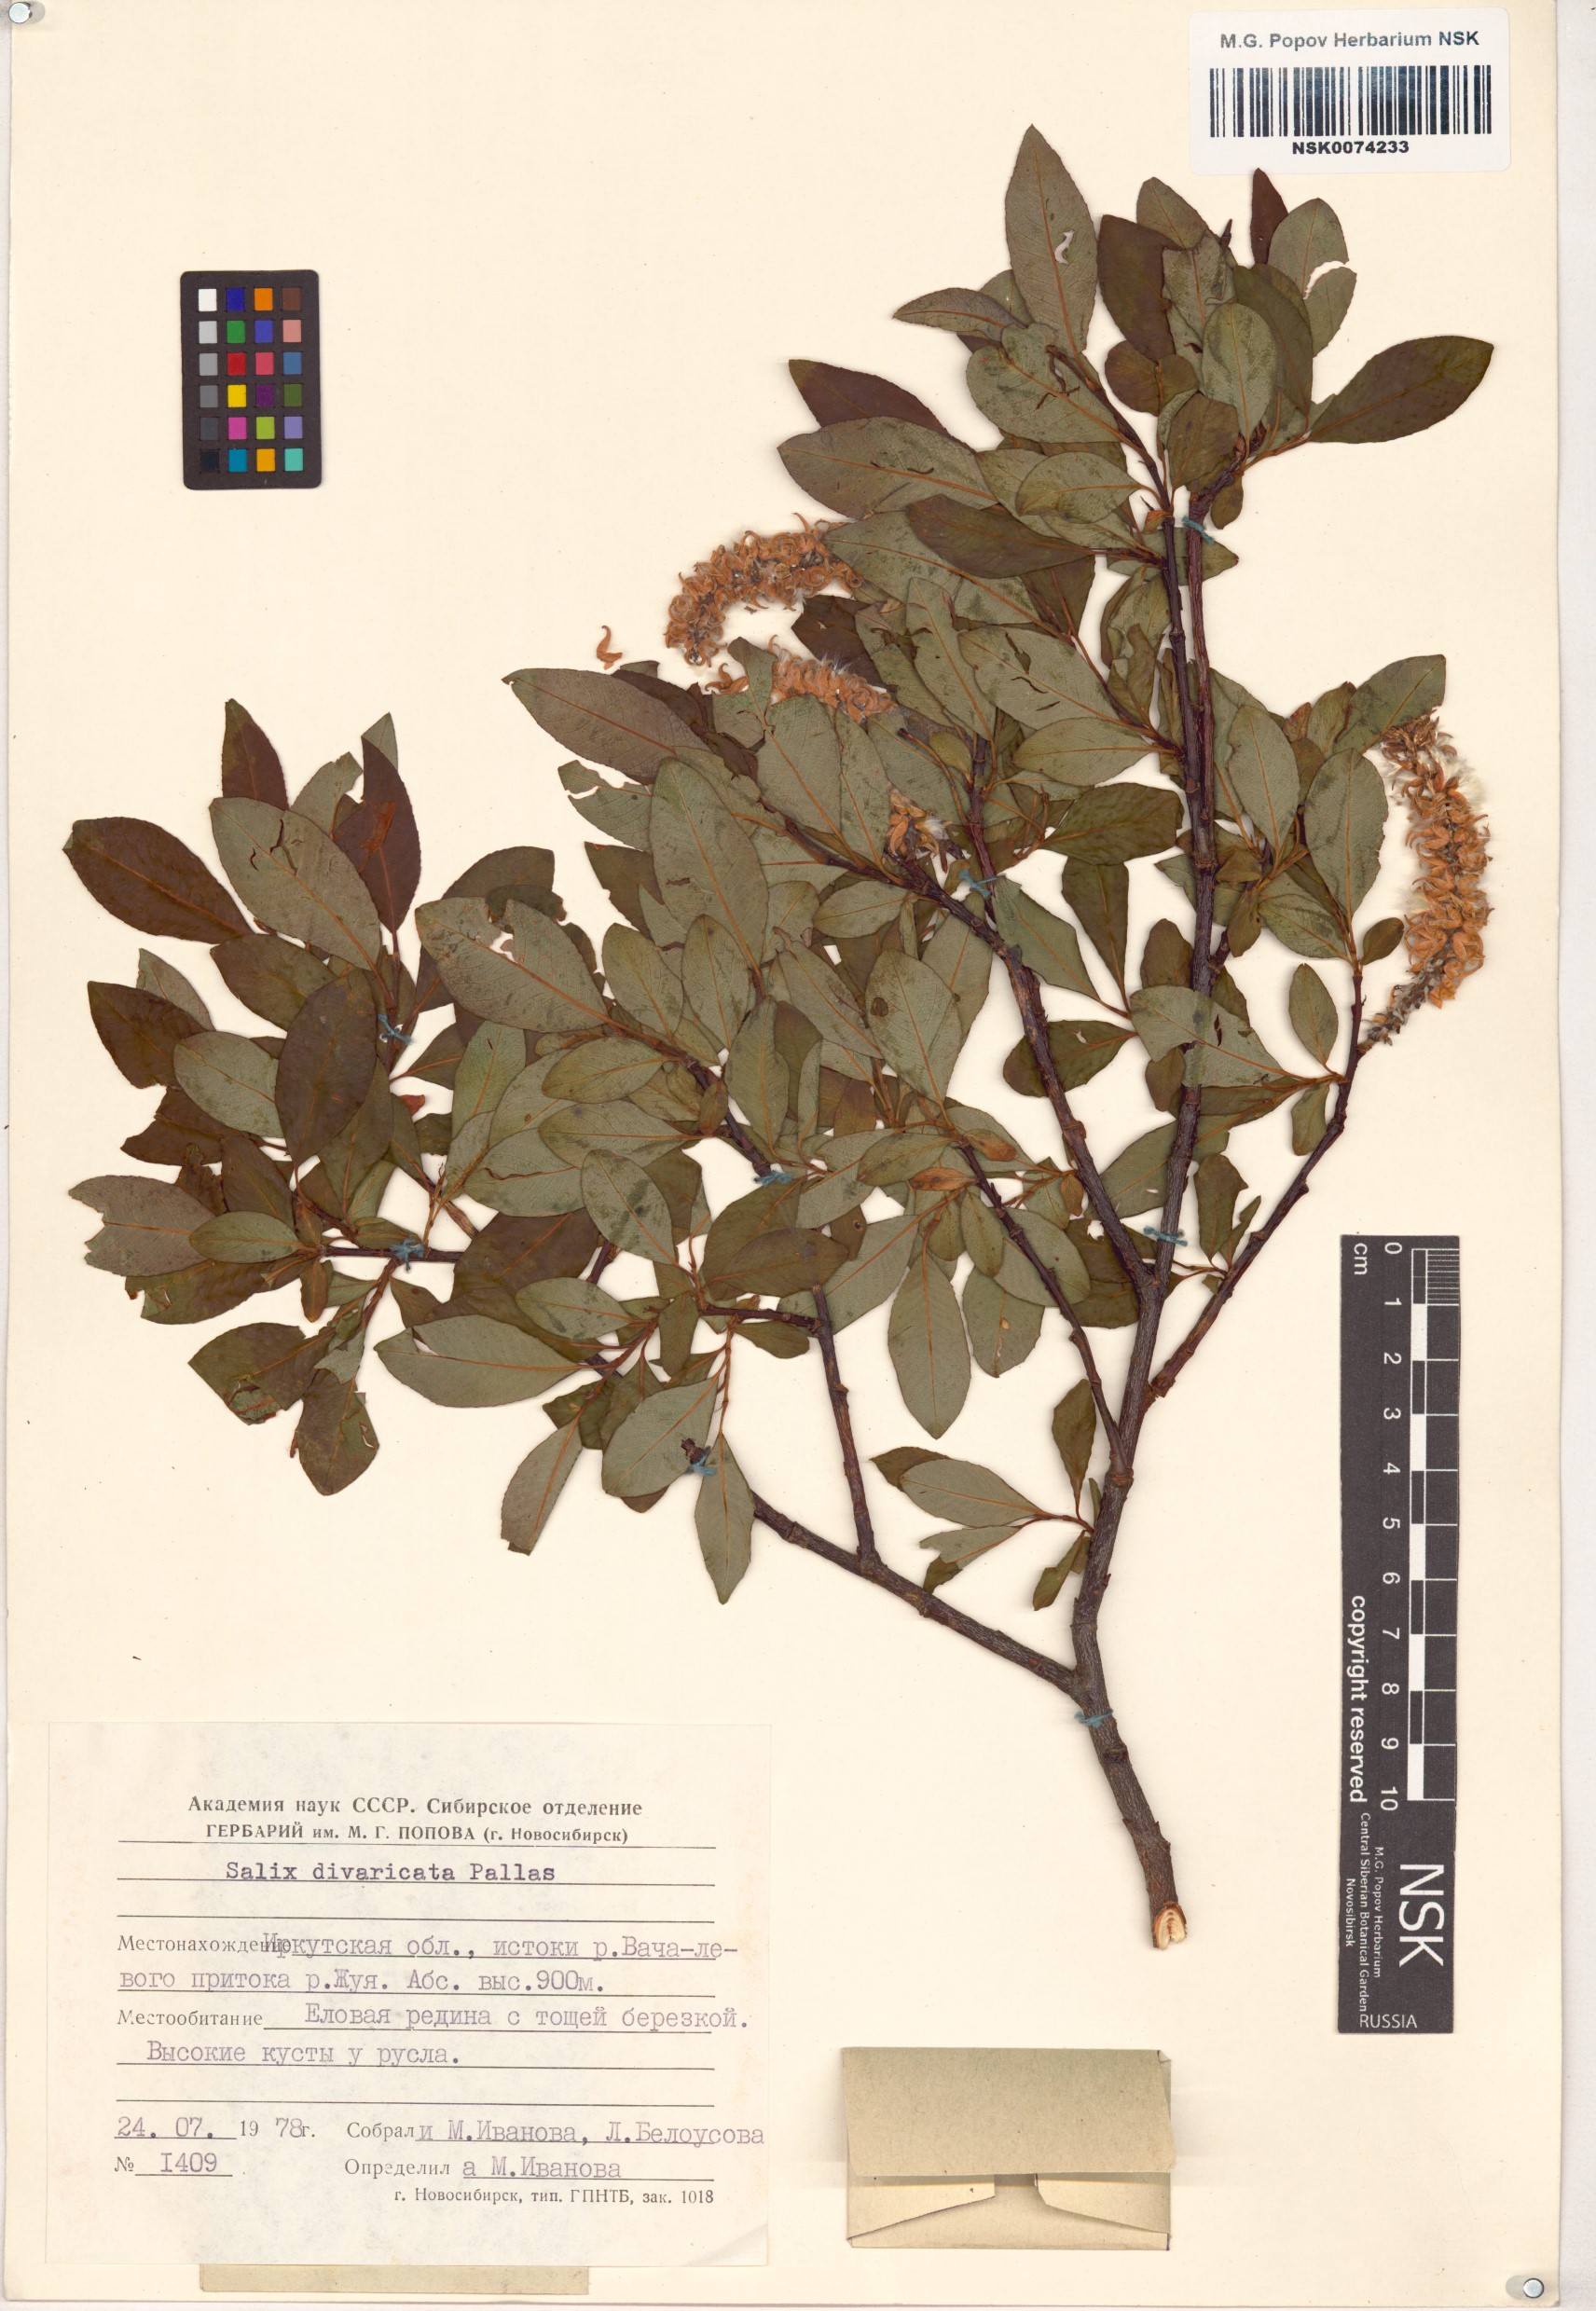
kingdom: Plantae
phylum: Tracheophyta
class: Magnoliopsida
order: Malpighiales
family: Salicaceae
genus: Salix
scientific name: Salix divaricata
